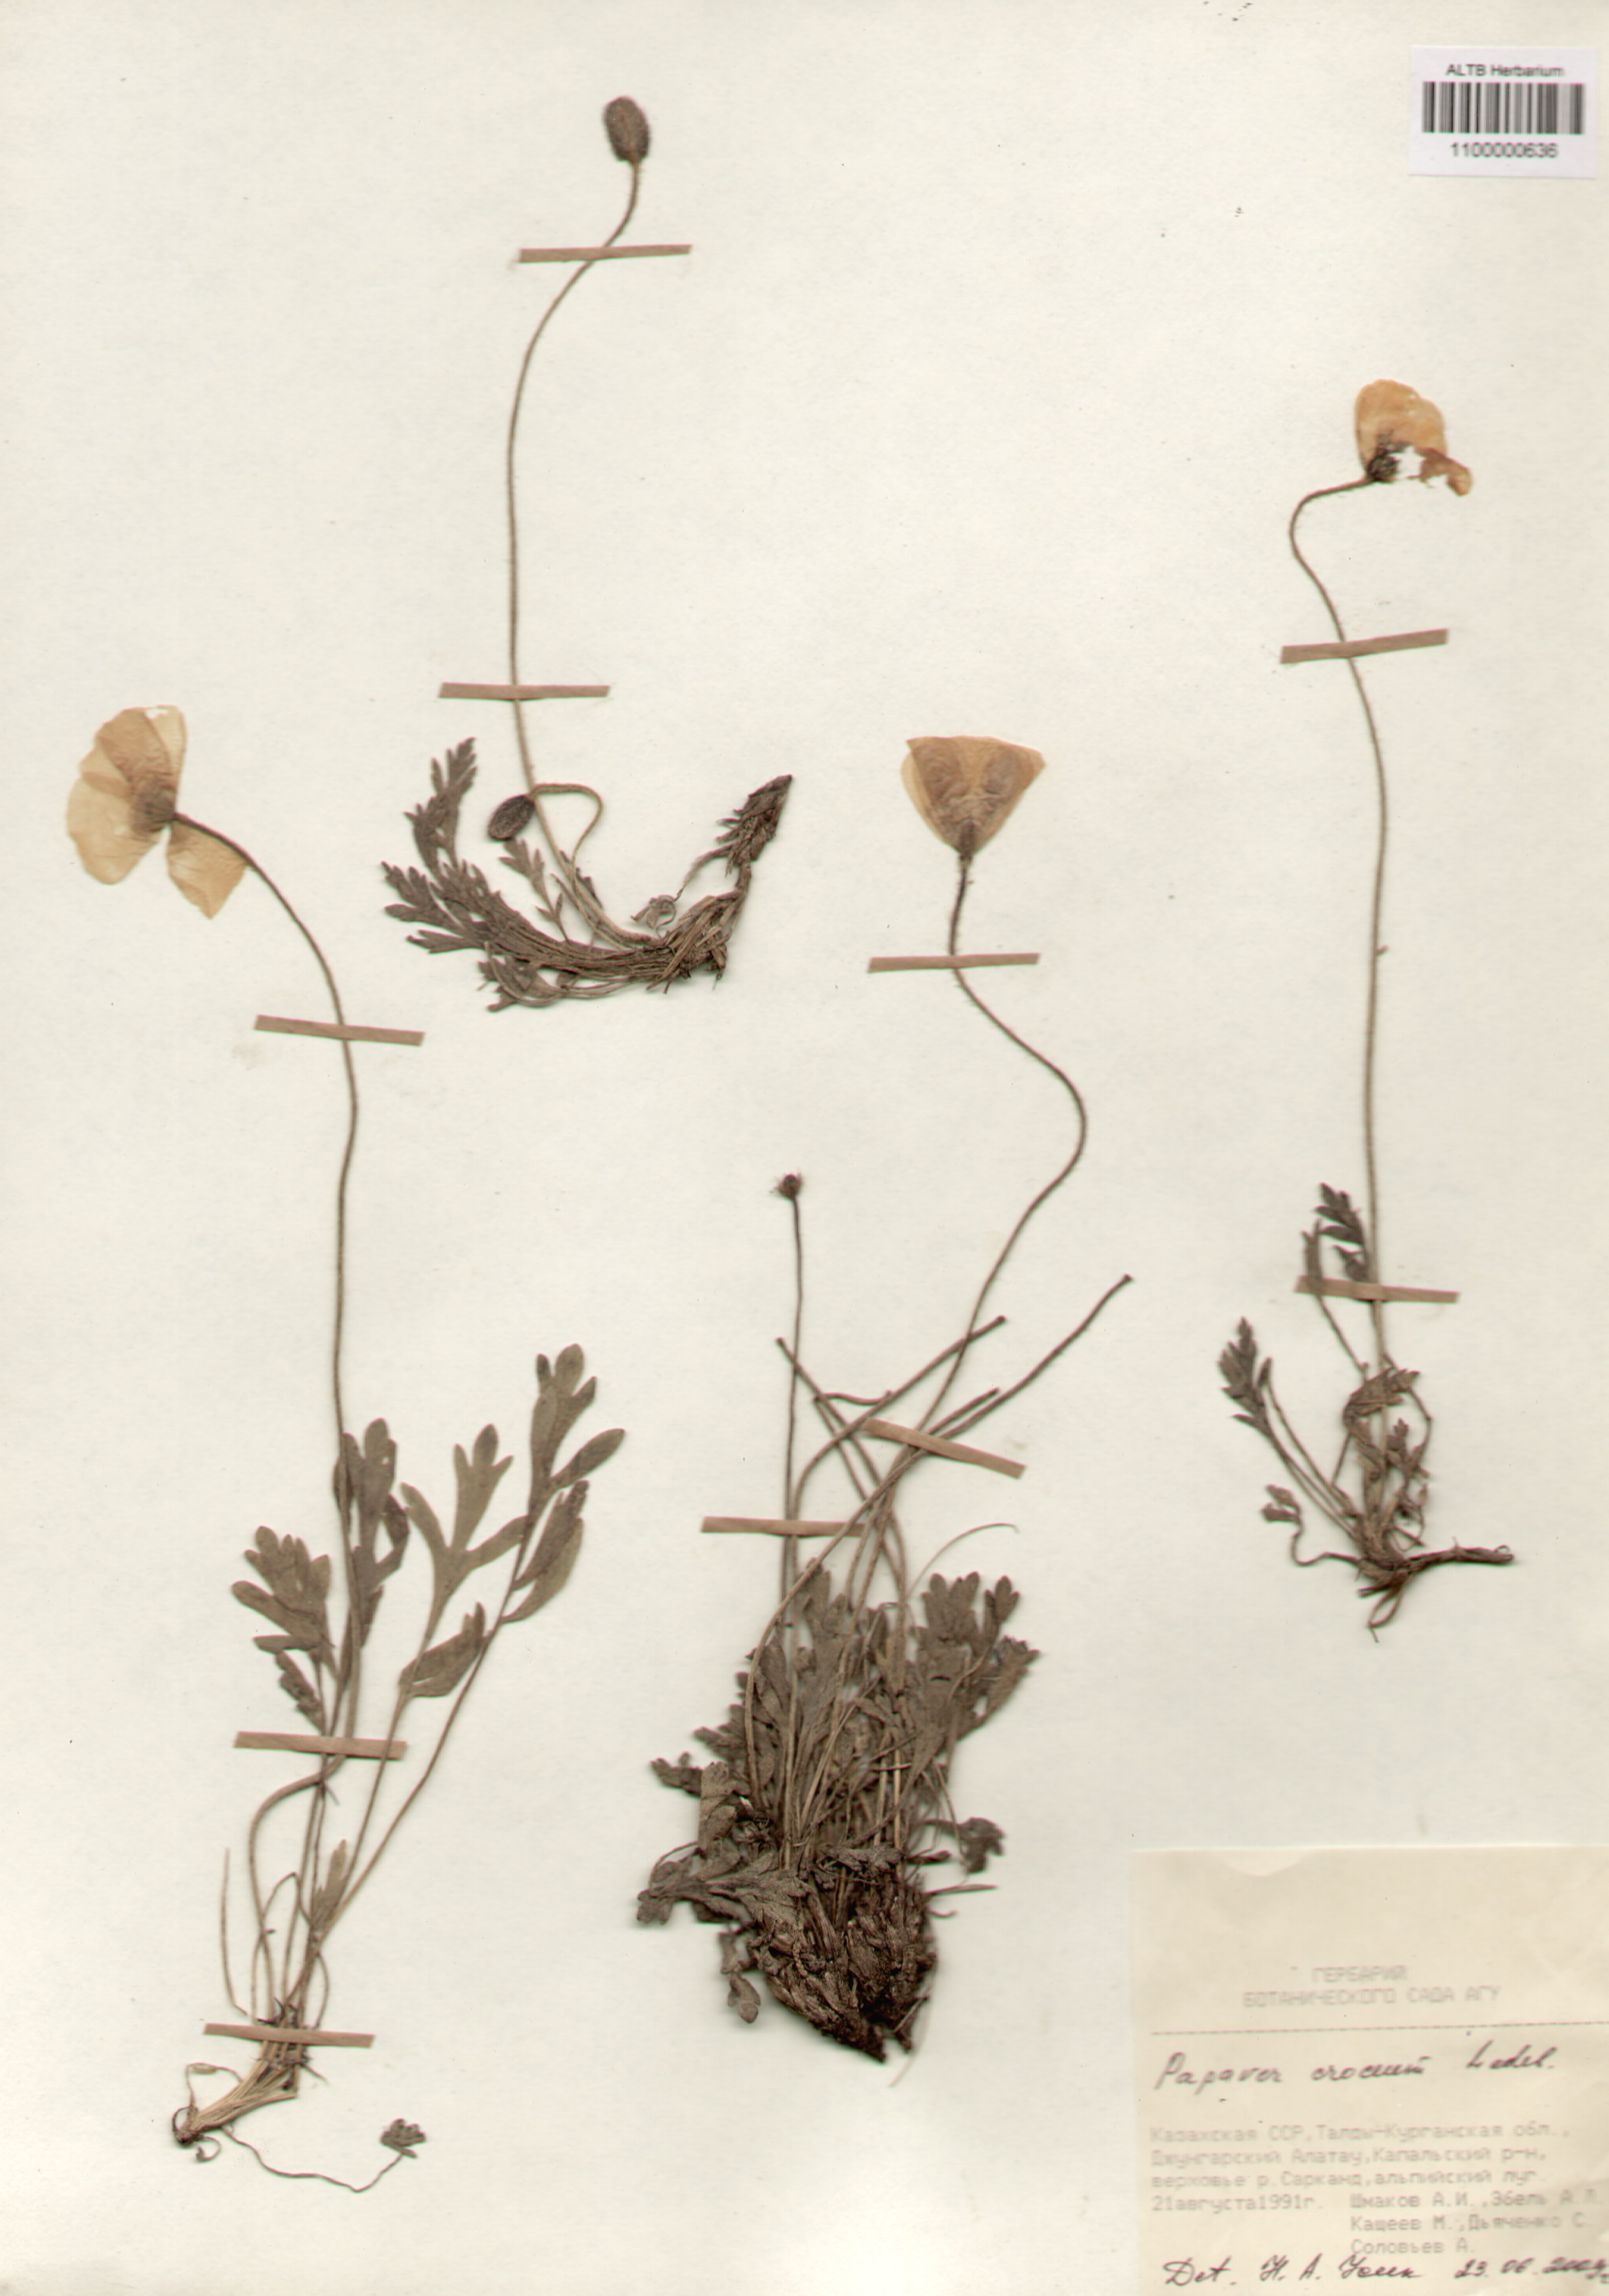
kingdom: Plantae
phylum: Tracheophyta
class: Magnoliopsida
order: Ranunculales
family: Papaveraceae
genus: Papaver
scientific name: Papaver croceum
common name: Siberian poppy
